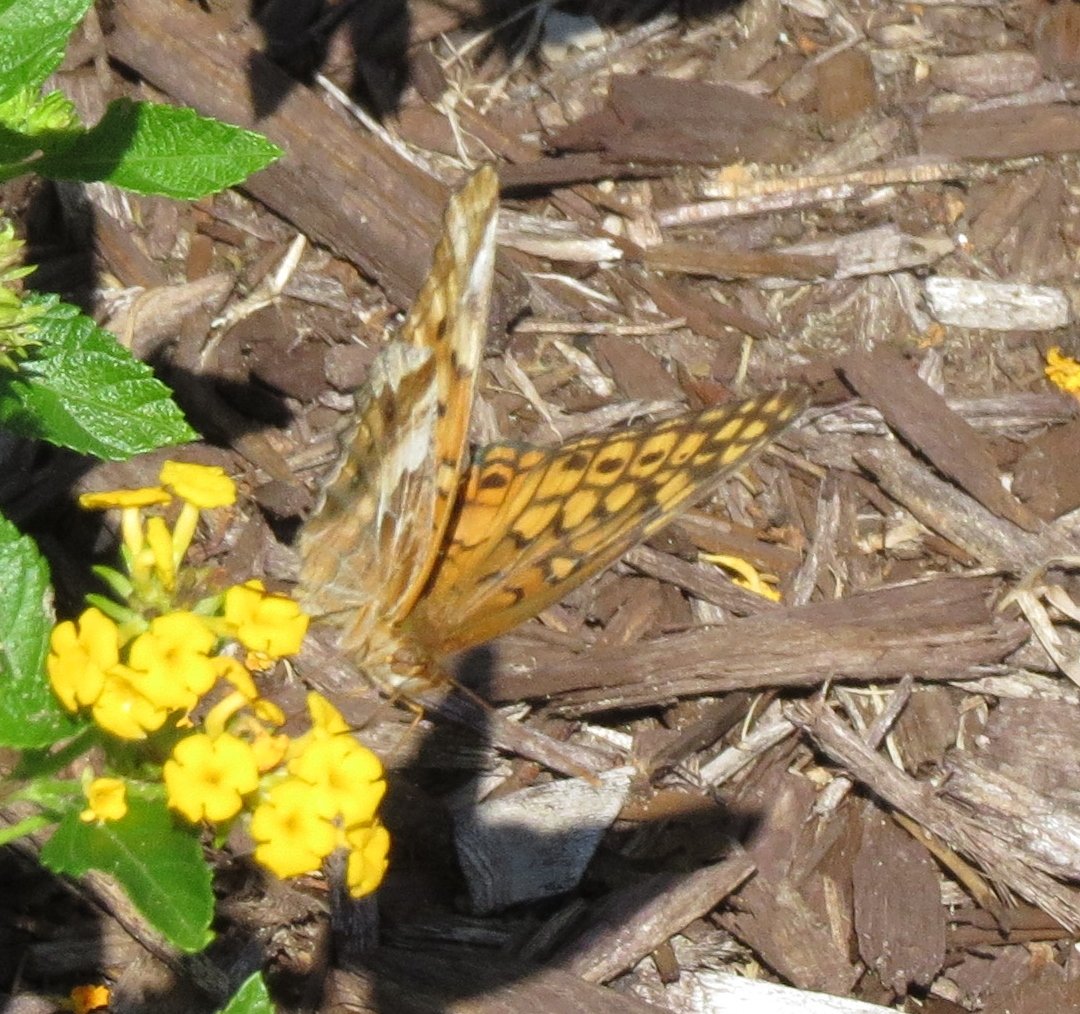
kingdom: Animalia
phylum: Arthropoda
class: Insecta
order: Lepidoptera
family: Nymphalidae
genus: Euptoieta
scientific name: Euptoieta claudia
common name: Variegated Fritillary
